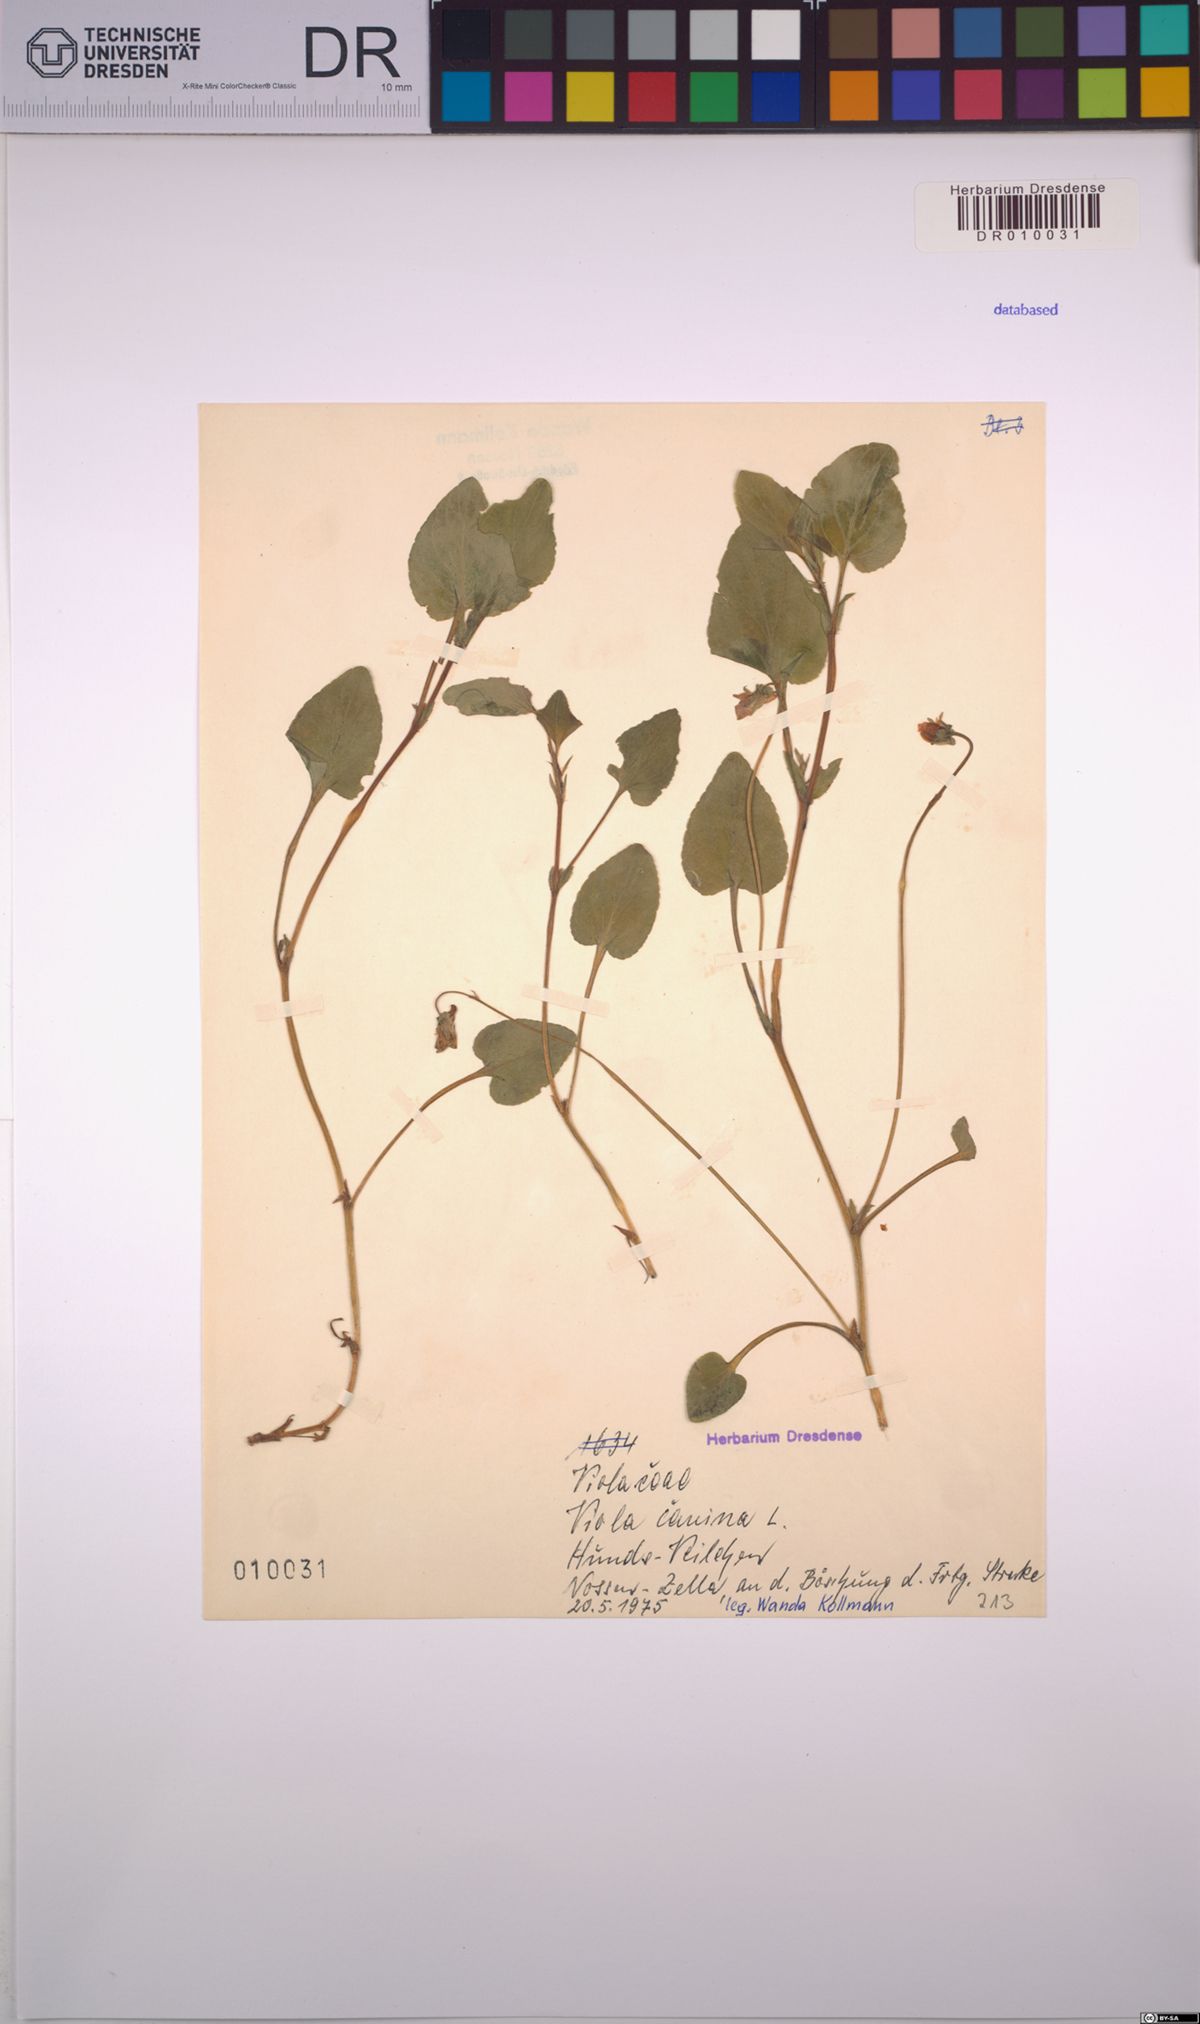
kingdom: Plantae
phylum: Tracheophyta
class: Magnoliopsida
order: Malpighiales
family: Violaceae
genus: Viola
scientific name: Viola canina
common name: Heath dog-violet
